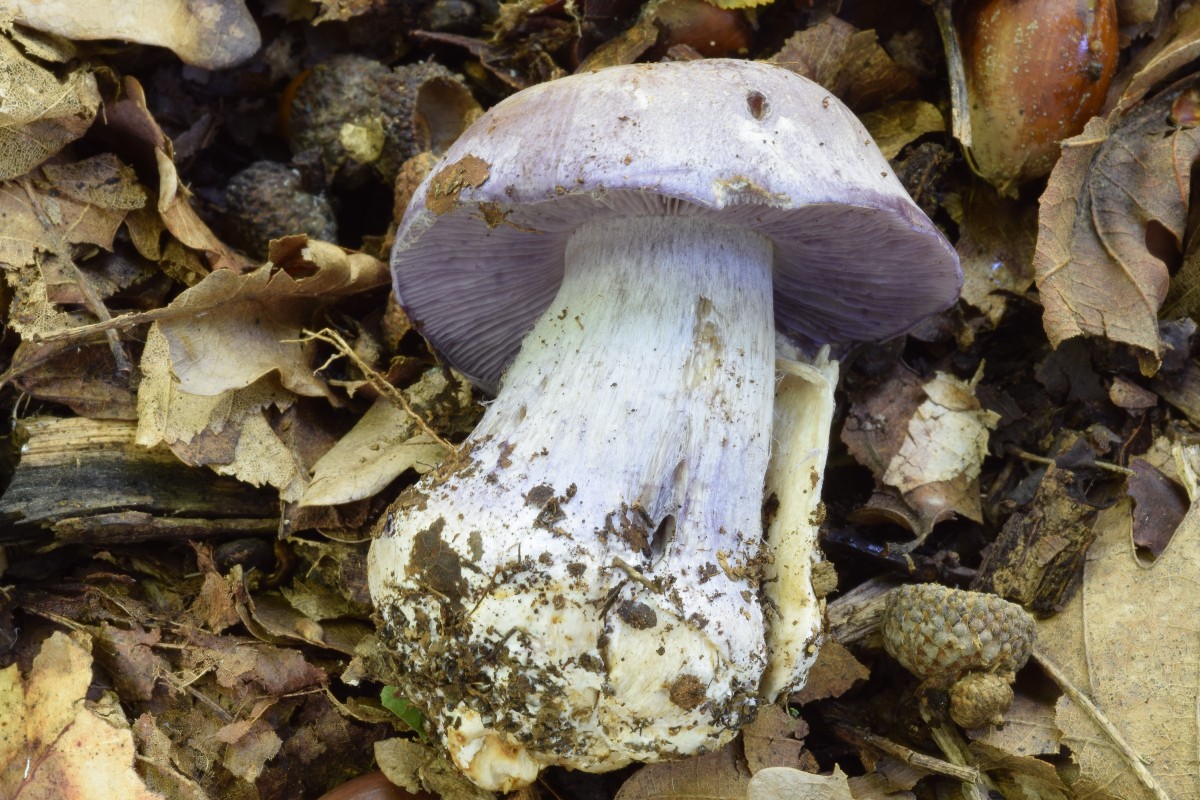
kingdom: Fungi
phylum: Basidiomycota
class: Agaricomycetes
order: Agaricales
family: Cortinariaceae
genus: Phlegmacium
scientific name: Phlegmacium barrentium
